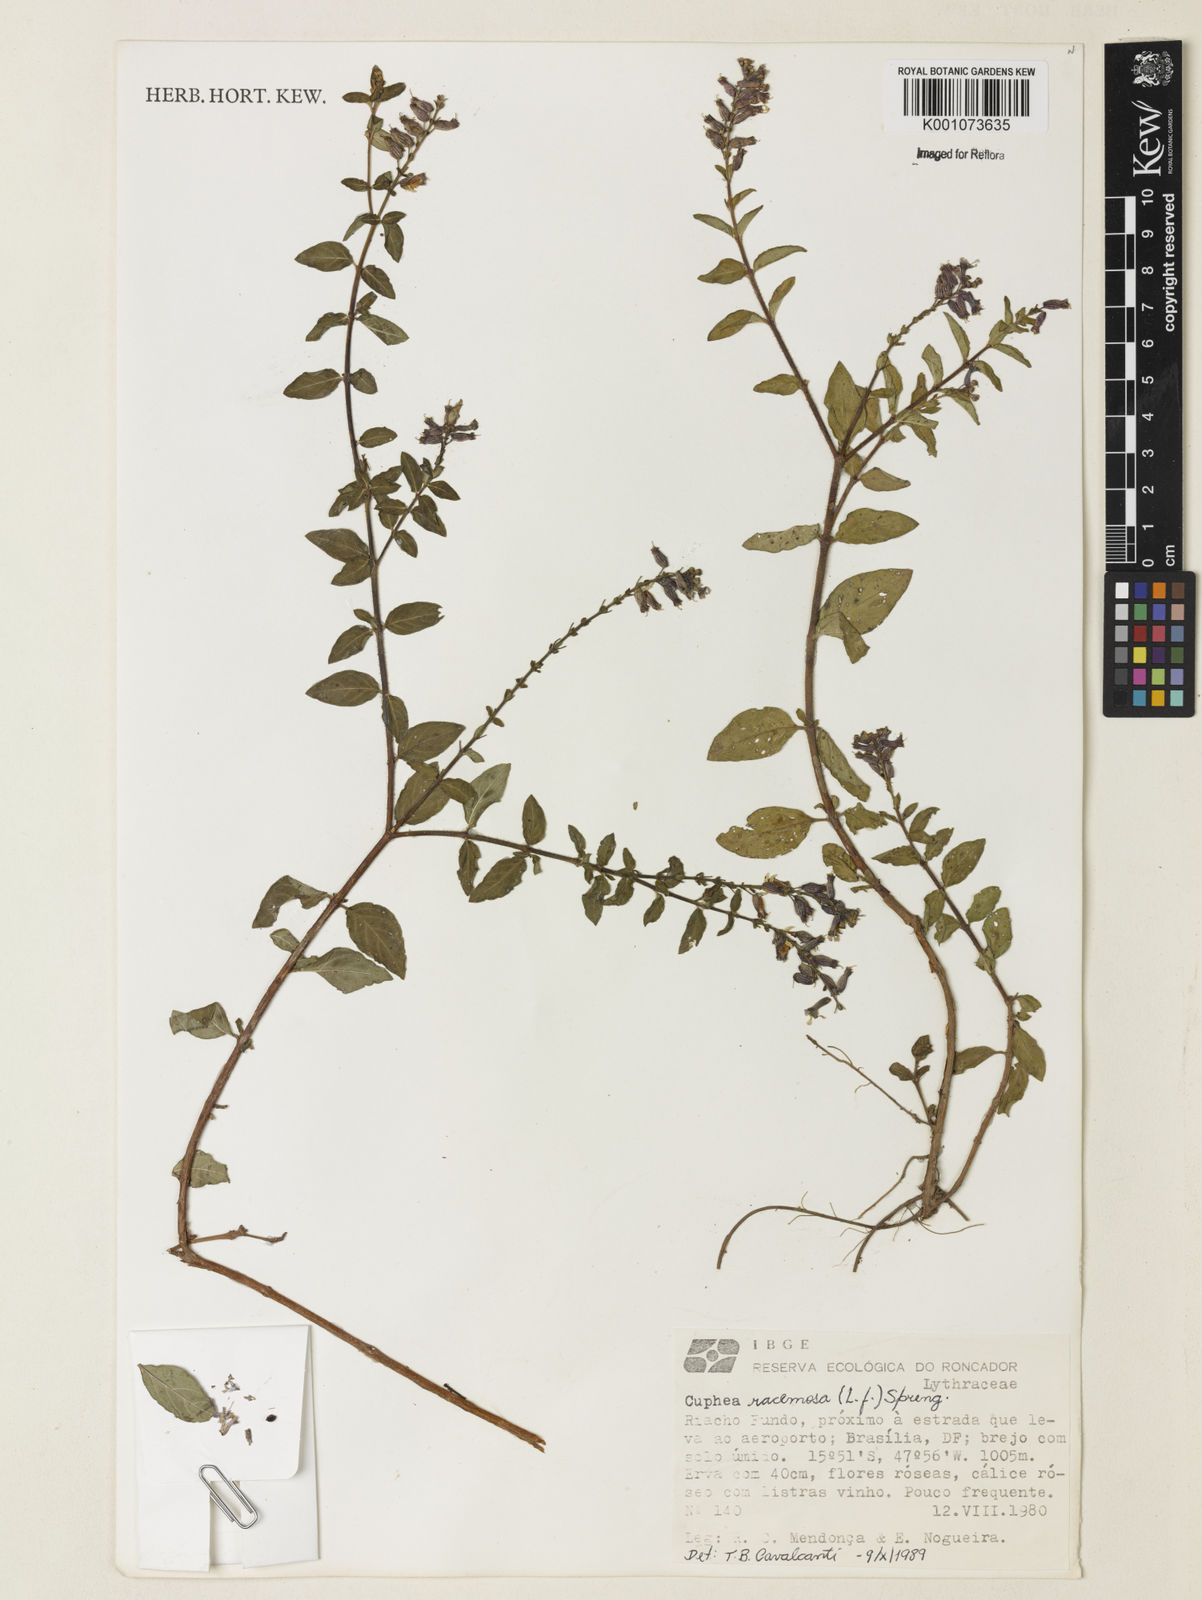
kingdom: Plantae
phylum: Tracheophyta
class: Magnoliopsida
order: Myrtales
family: Lythraceae
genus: Cuphea
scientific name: Cuphea racemosa
